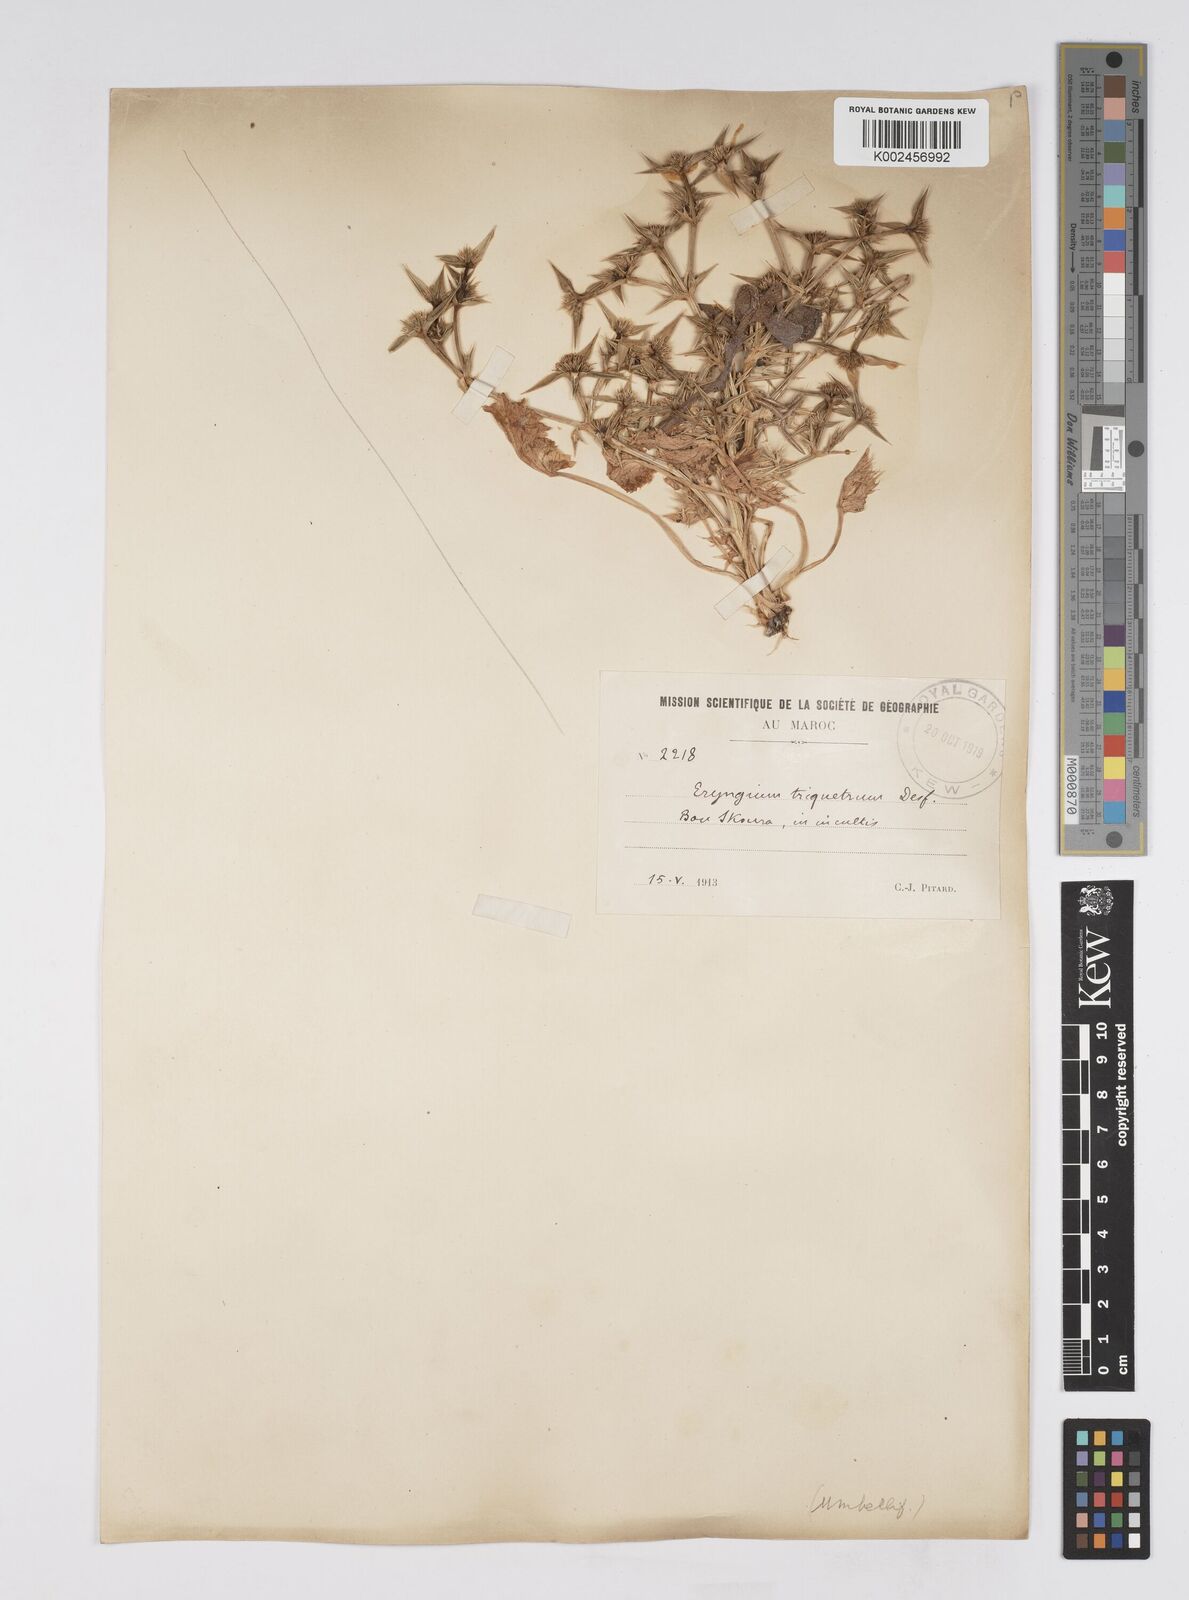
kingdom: Plantae
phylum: Tracheophyta
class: Magnoliopsida
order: Apiales
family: Apiaceae
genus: Eryngium
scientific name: Eryngium
